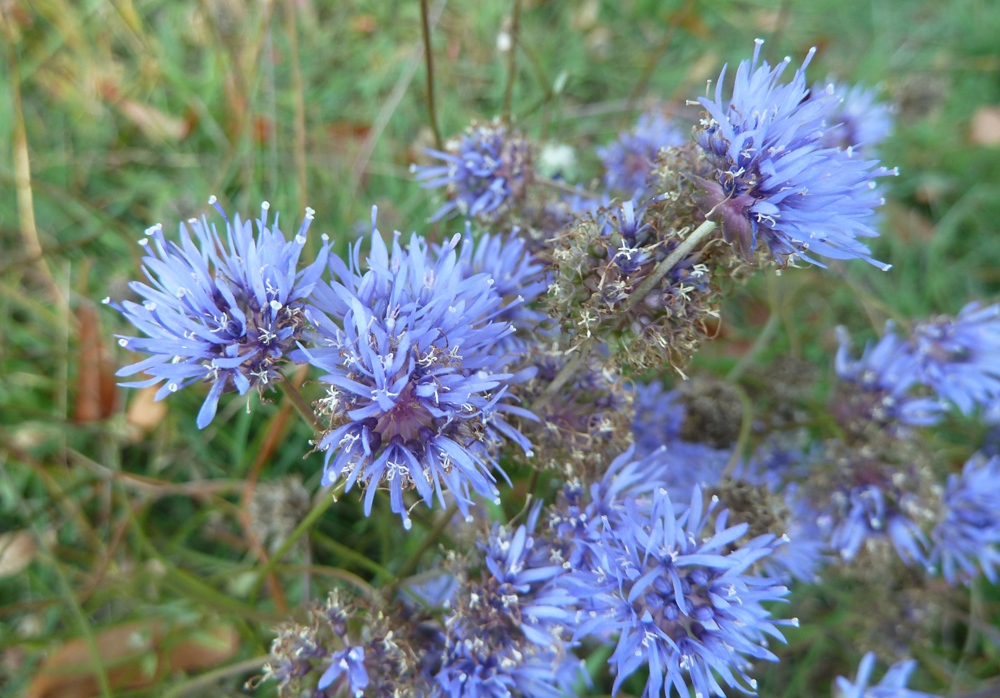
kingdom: Plantae
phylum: Tracheophyta
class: Magnoliopsida
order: Asterales
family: Campanulaceae
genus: Jasione
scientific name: Jasione montana
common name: Sheep's-bit
